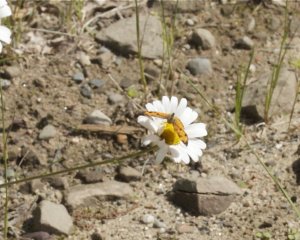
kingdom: Animalia
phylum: Arthropoda
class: Insecta
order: Lepidoptera
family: Nymphalidae
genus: Phyciodes
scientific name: Phyciodes tharos
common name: Northern Crescent
